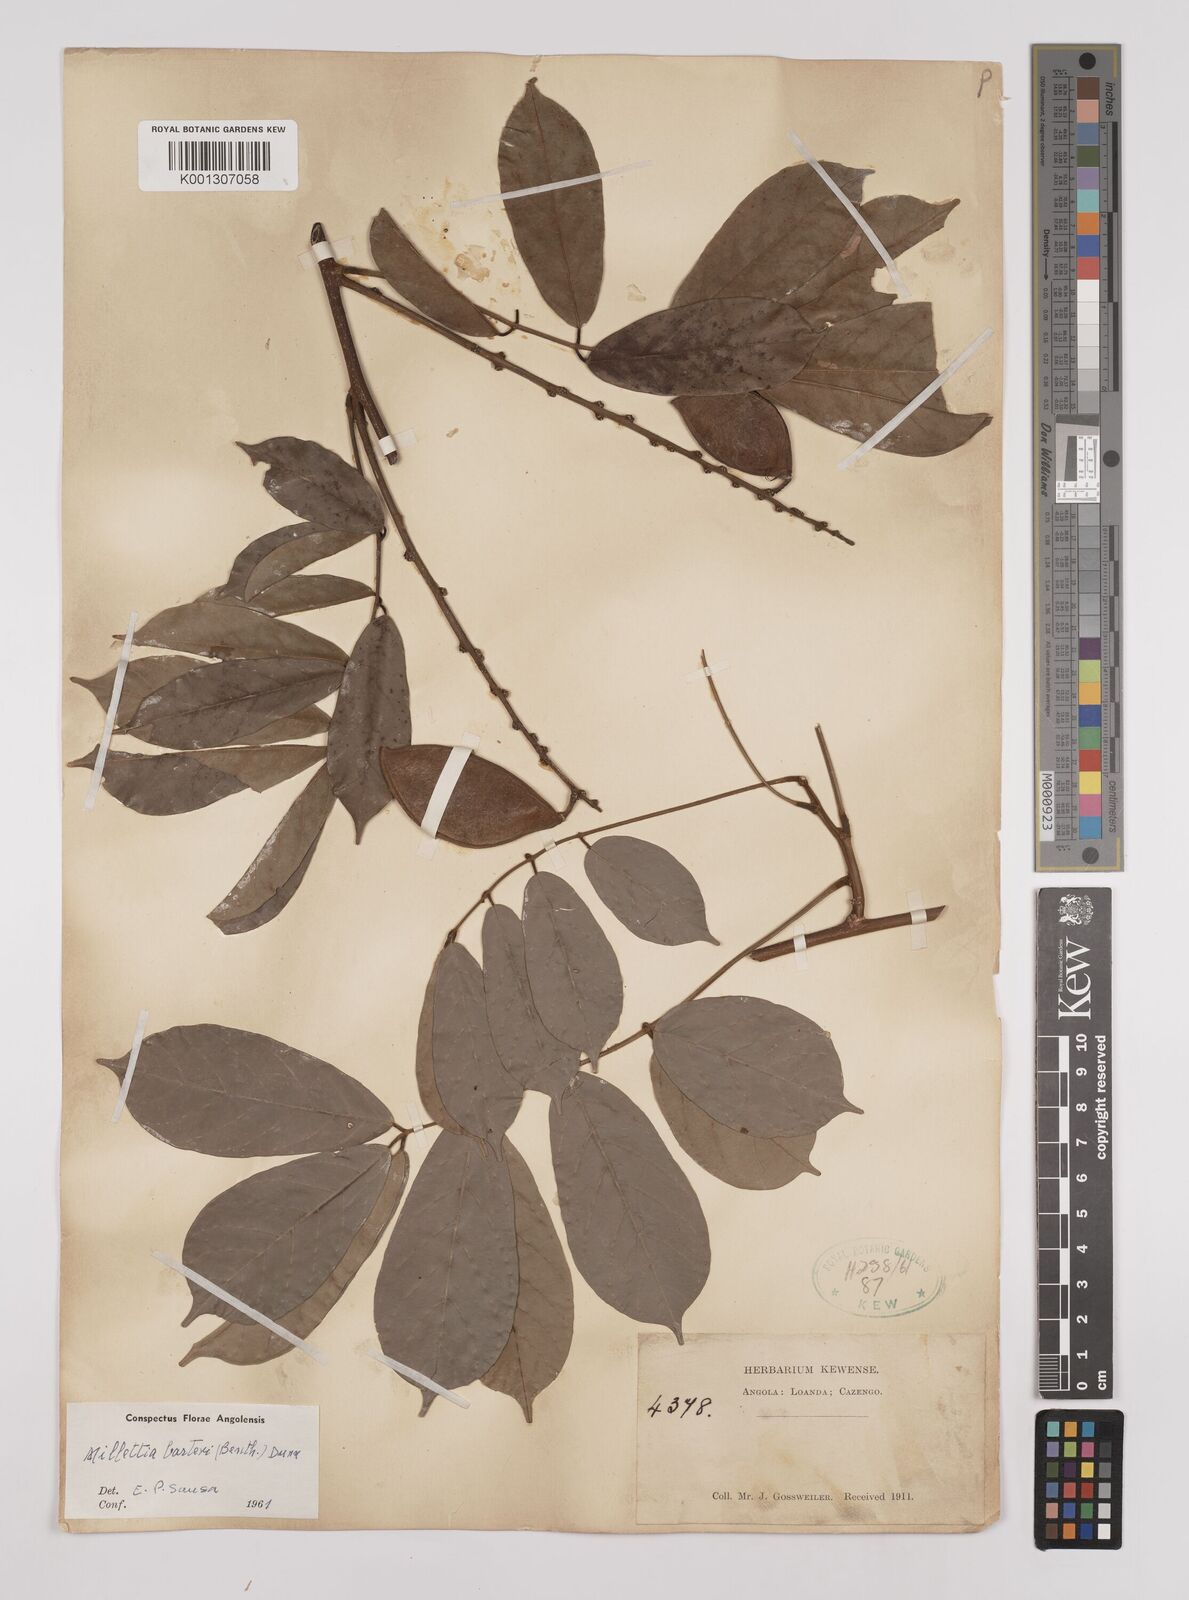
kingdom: Plantae
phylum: Tracheophyta
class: Magnoliopsida
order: Fabales
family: Fabaceae
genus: Millettia
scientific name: Millettia barteri
